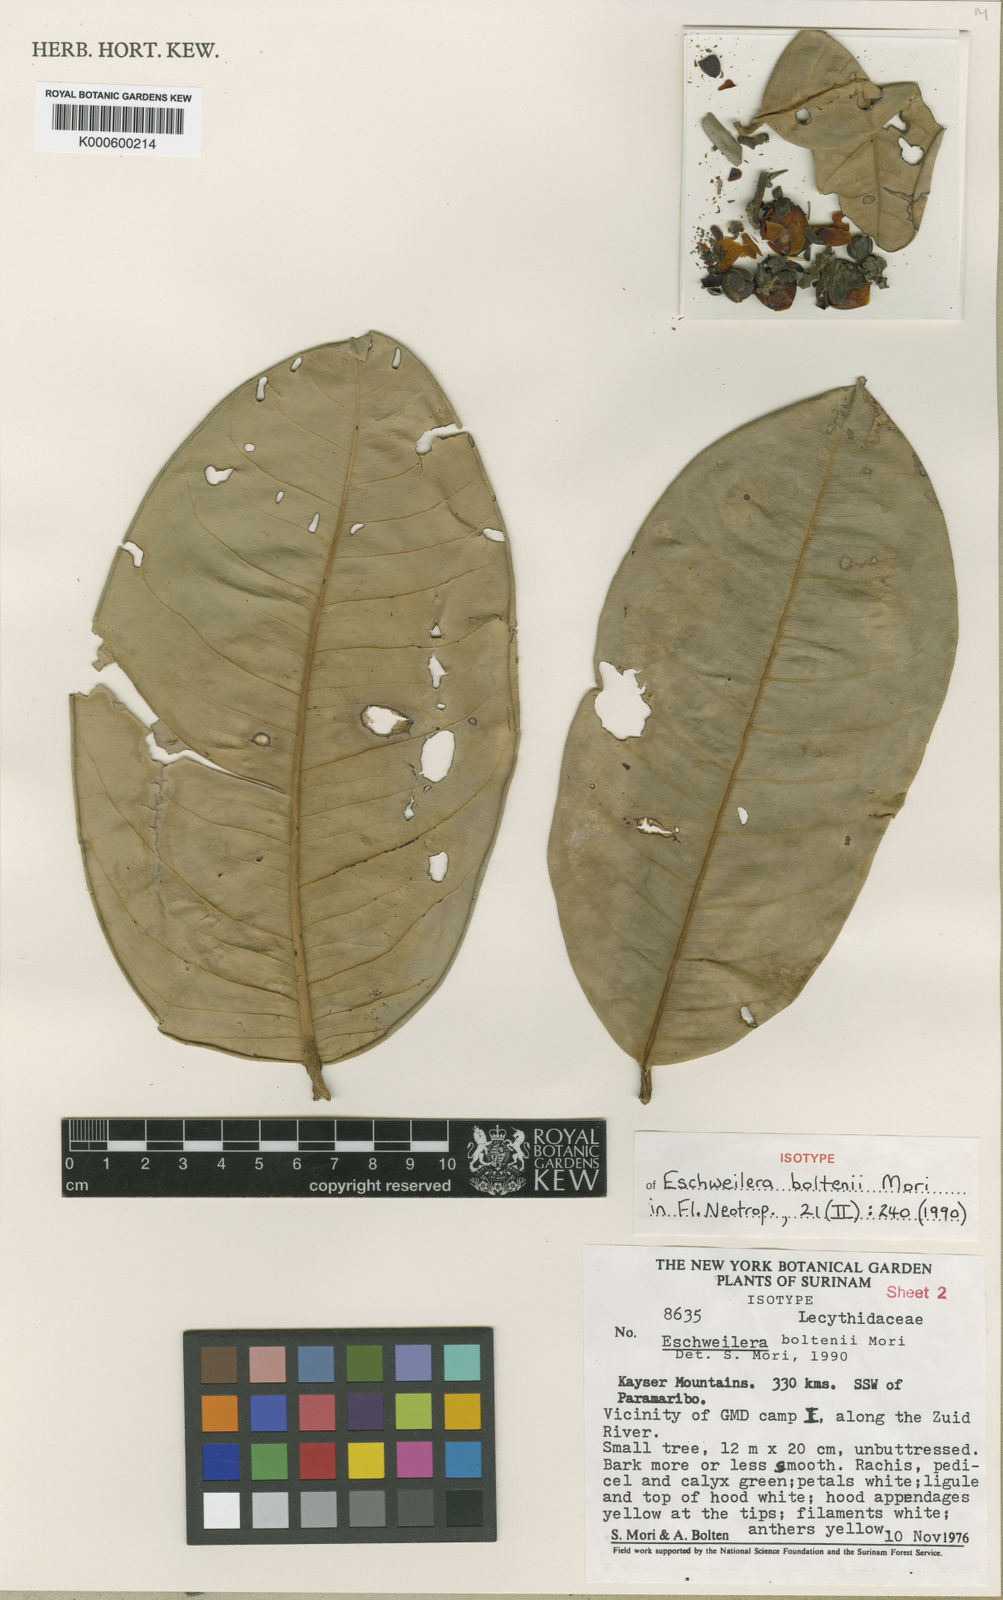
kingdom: Plantae
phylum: Tracheophyta
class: Magnoliopsida
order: Ericales
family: Lecythidaceae
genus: Eschweilera
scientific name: Eschweilera boltenii
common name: Bolten eschweilera
